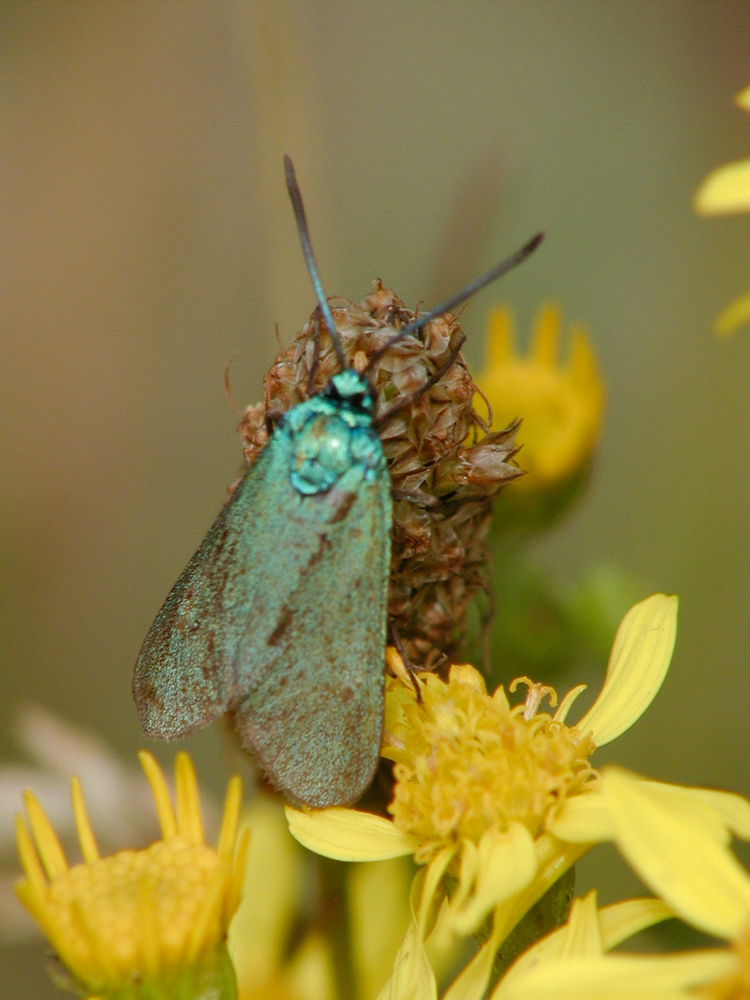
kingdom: Animalia
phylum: Arthropoda
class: Insecta
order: Lepidoptera
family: Zygaenidae
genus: Adscita
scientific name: Adscita statices
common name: Forester
